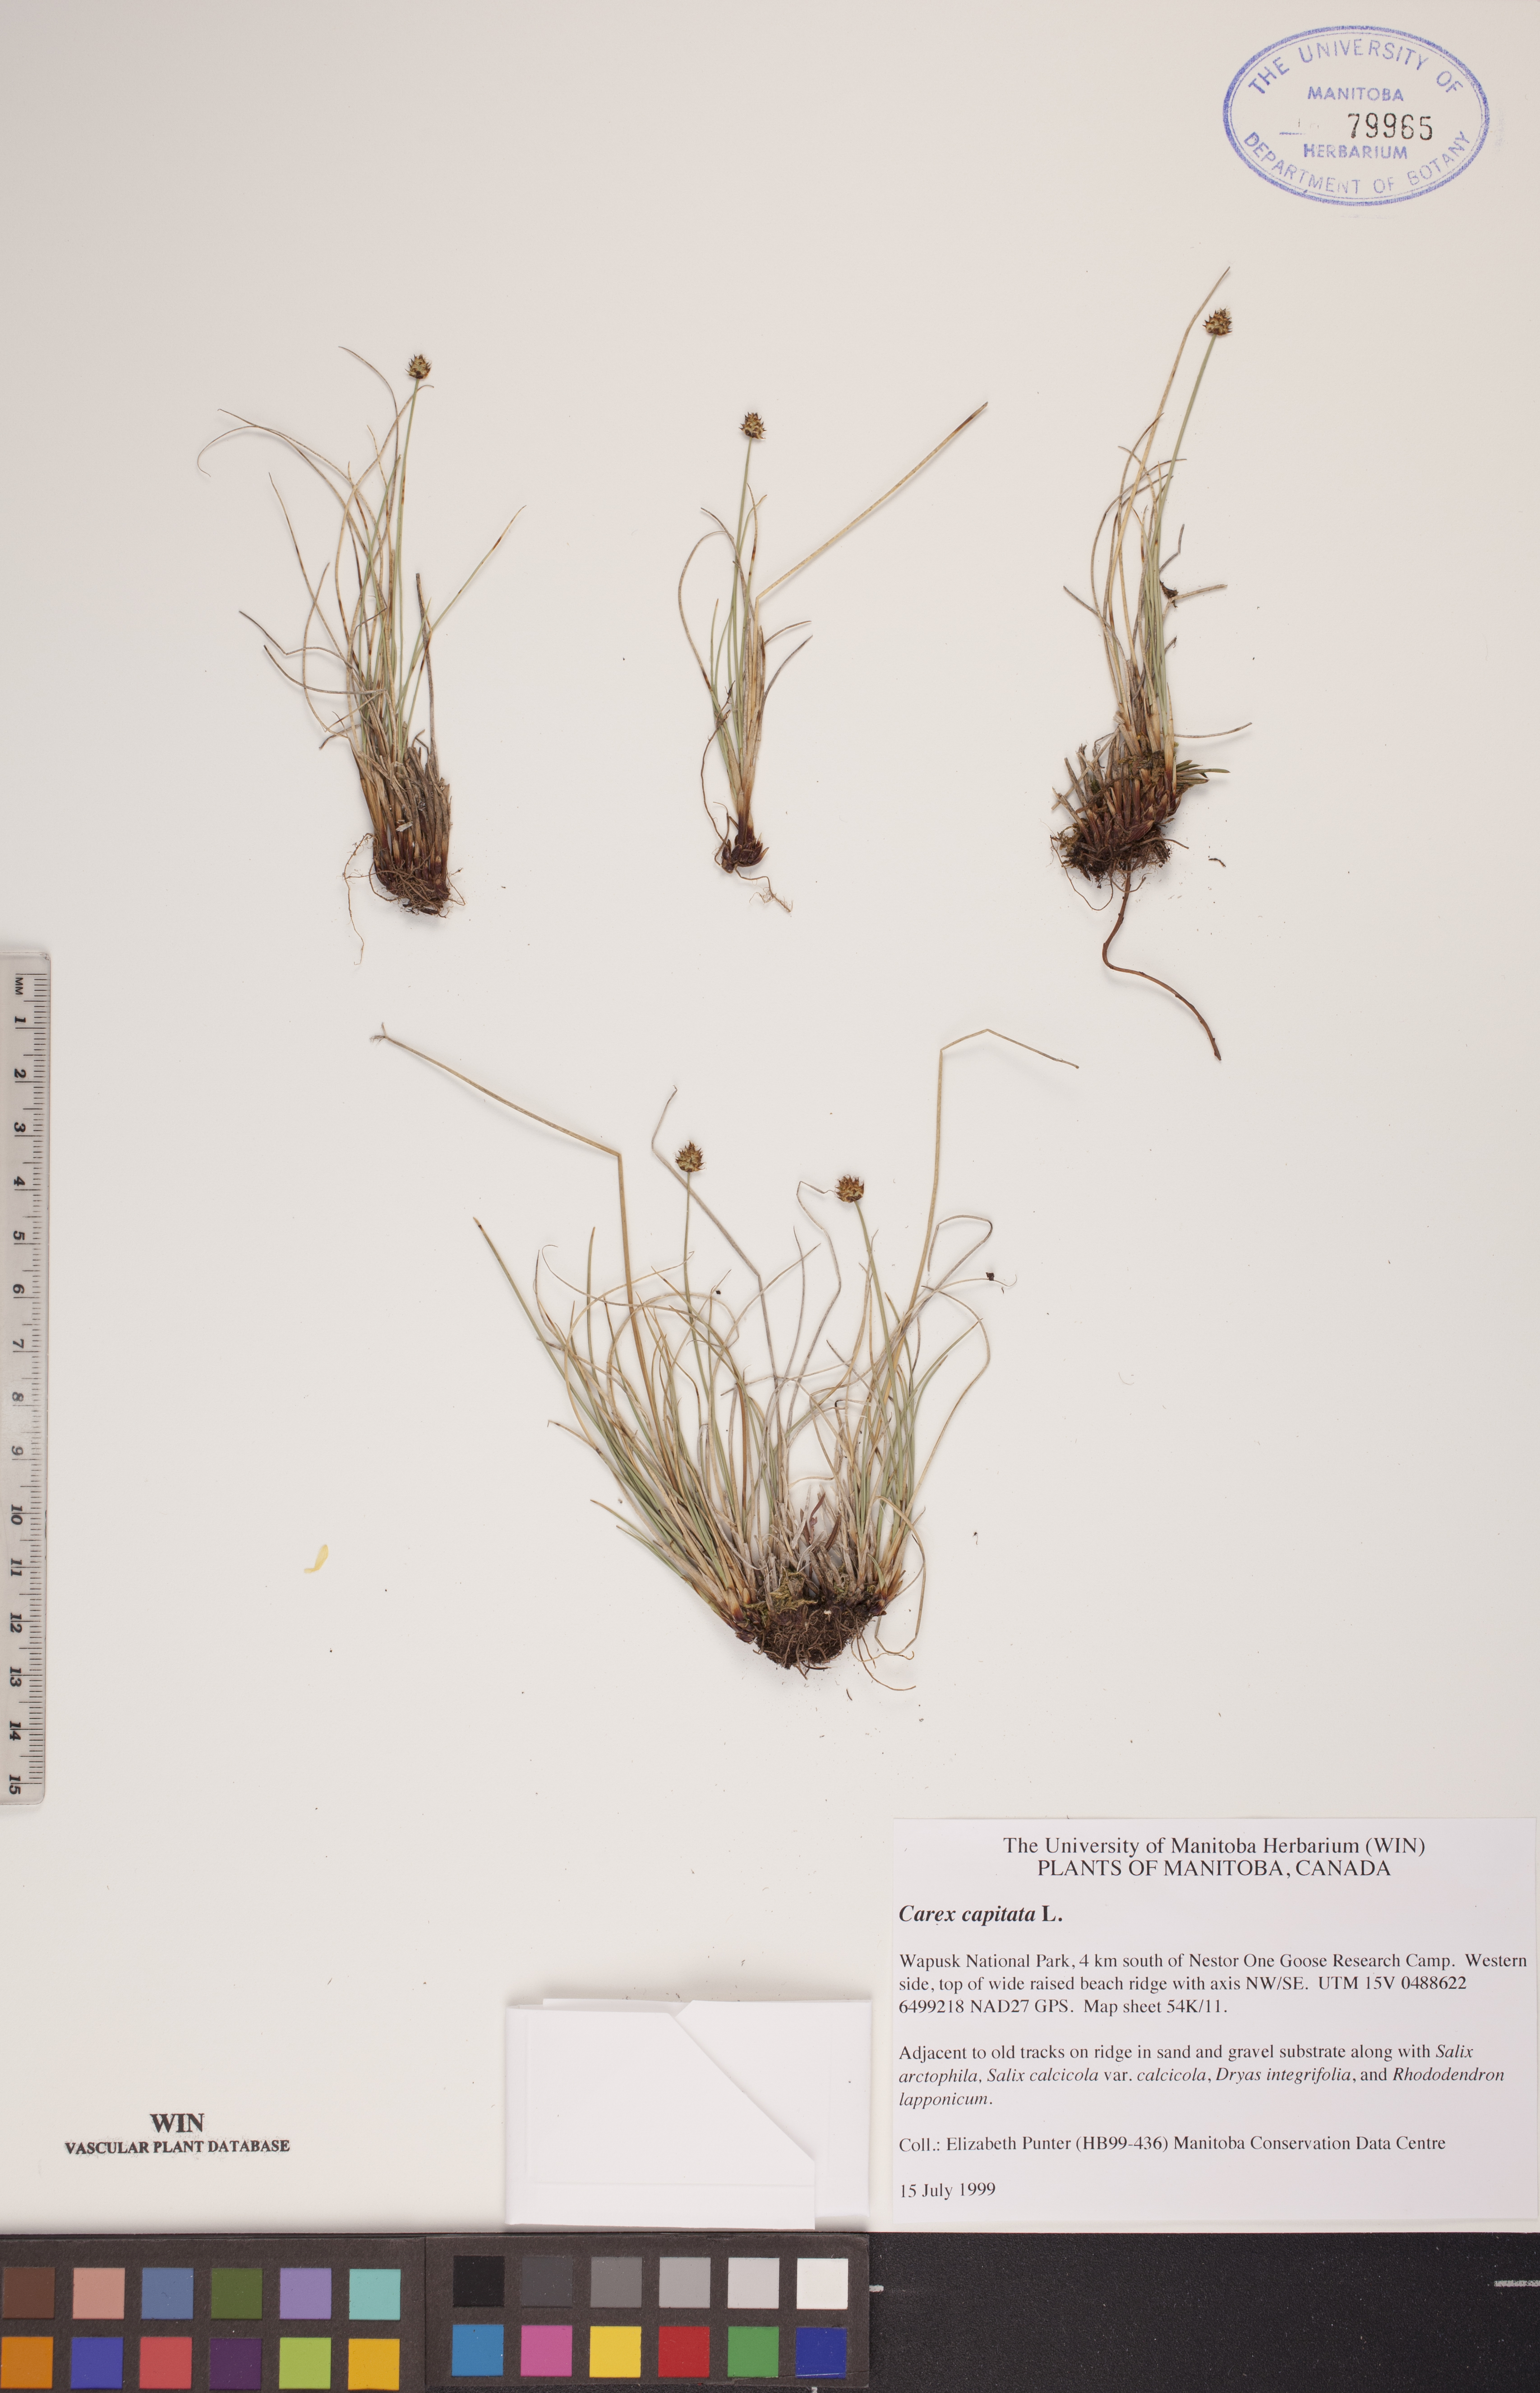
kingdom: Plantae
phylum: Tracheophyta
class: Liliopsida
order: Poales
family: Cyperaceae
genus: Carex
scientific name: Carex capitata
